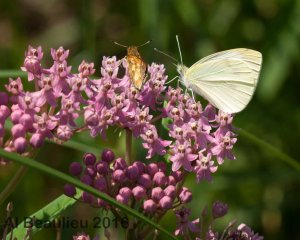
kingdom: Animalia
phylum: Arthropoda
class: Insecta
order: Lepidoptera
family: Pieridae
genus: Pieris
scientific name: Pieris rapae
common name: Cabbage White
